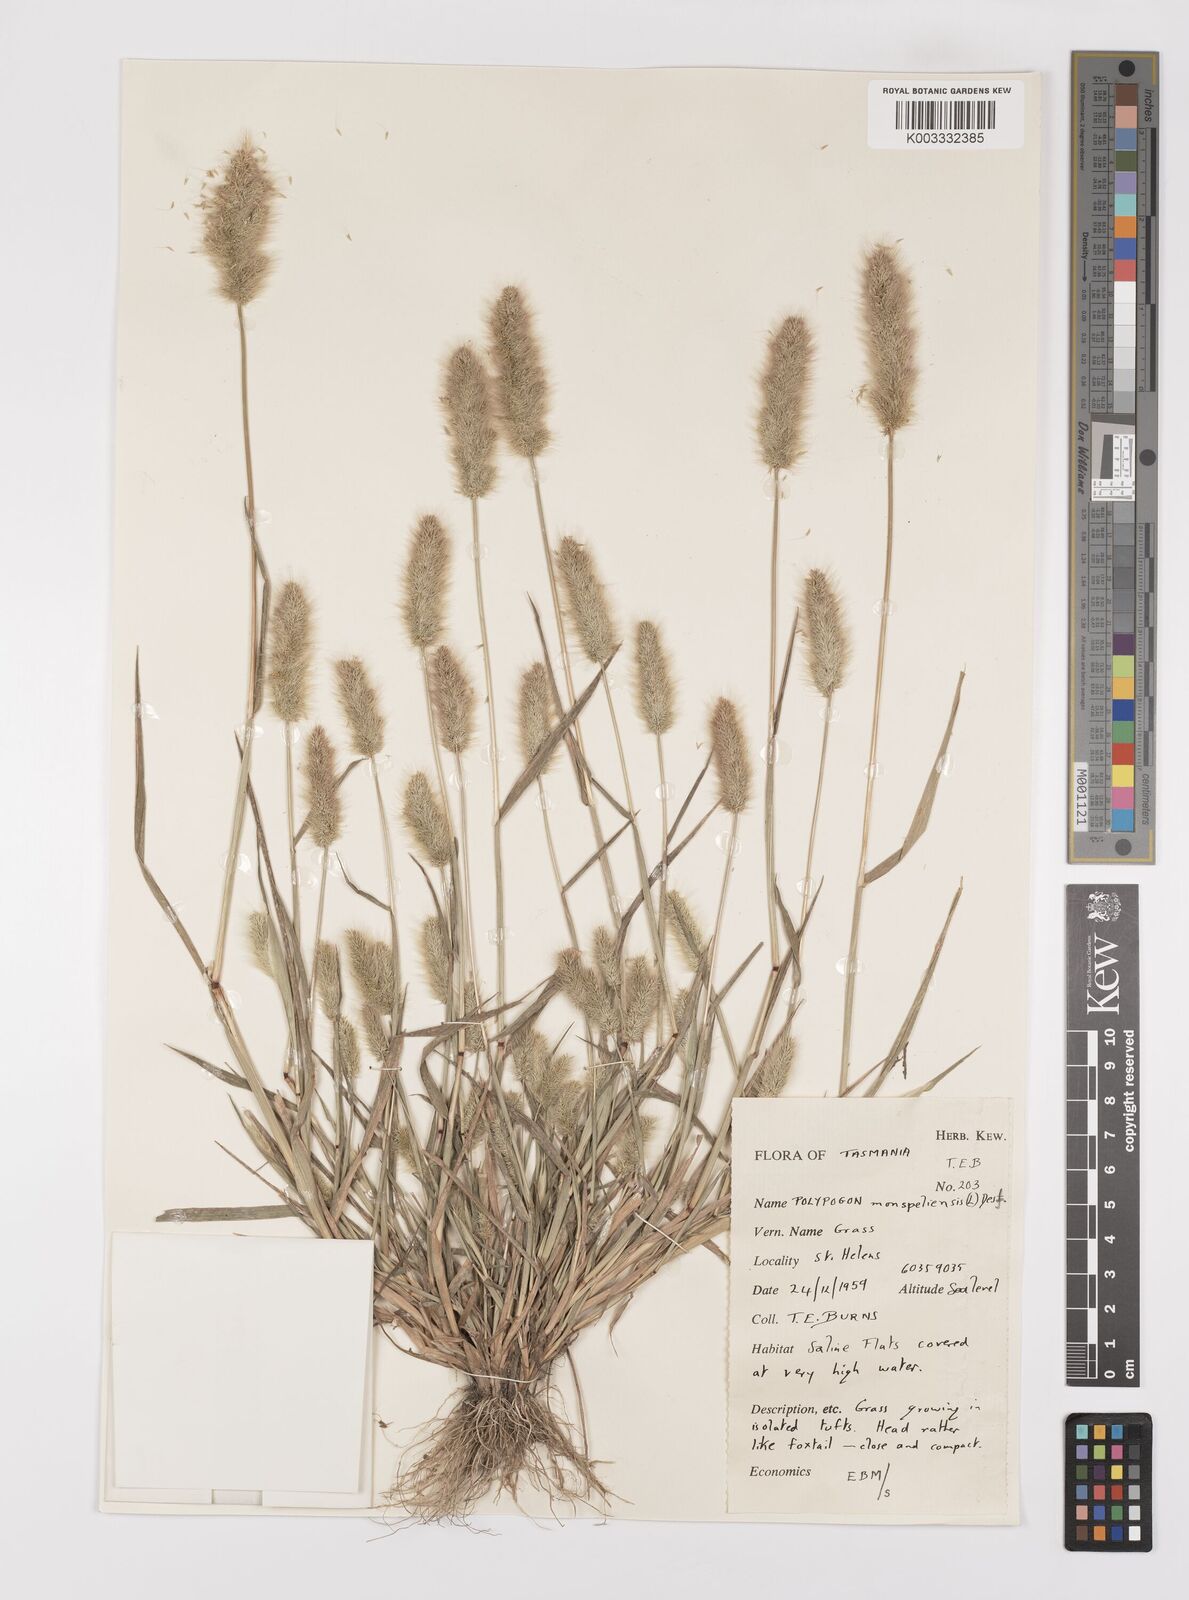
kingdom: Plantae
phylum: Tracheophyta
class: Liliopsida
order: Poales
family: Poaceae
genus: Polypogon
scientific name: Polypogon monspeliensis
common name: Annual rabbitsfoot grass
